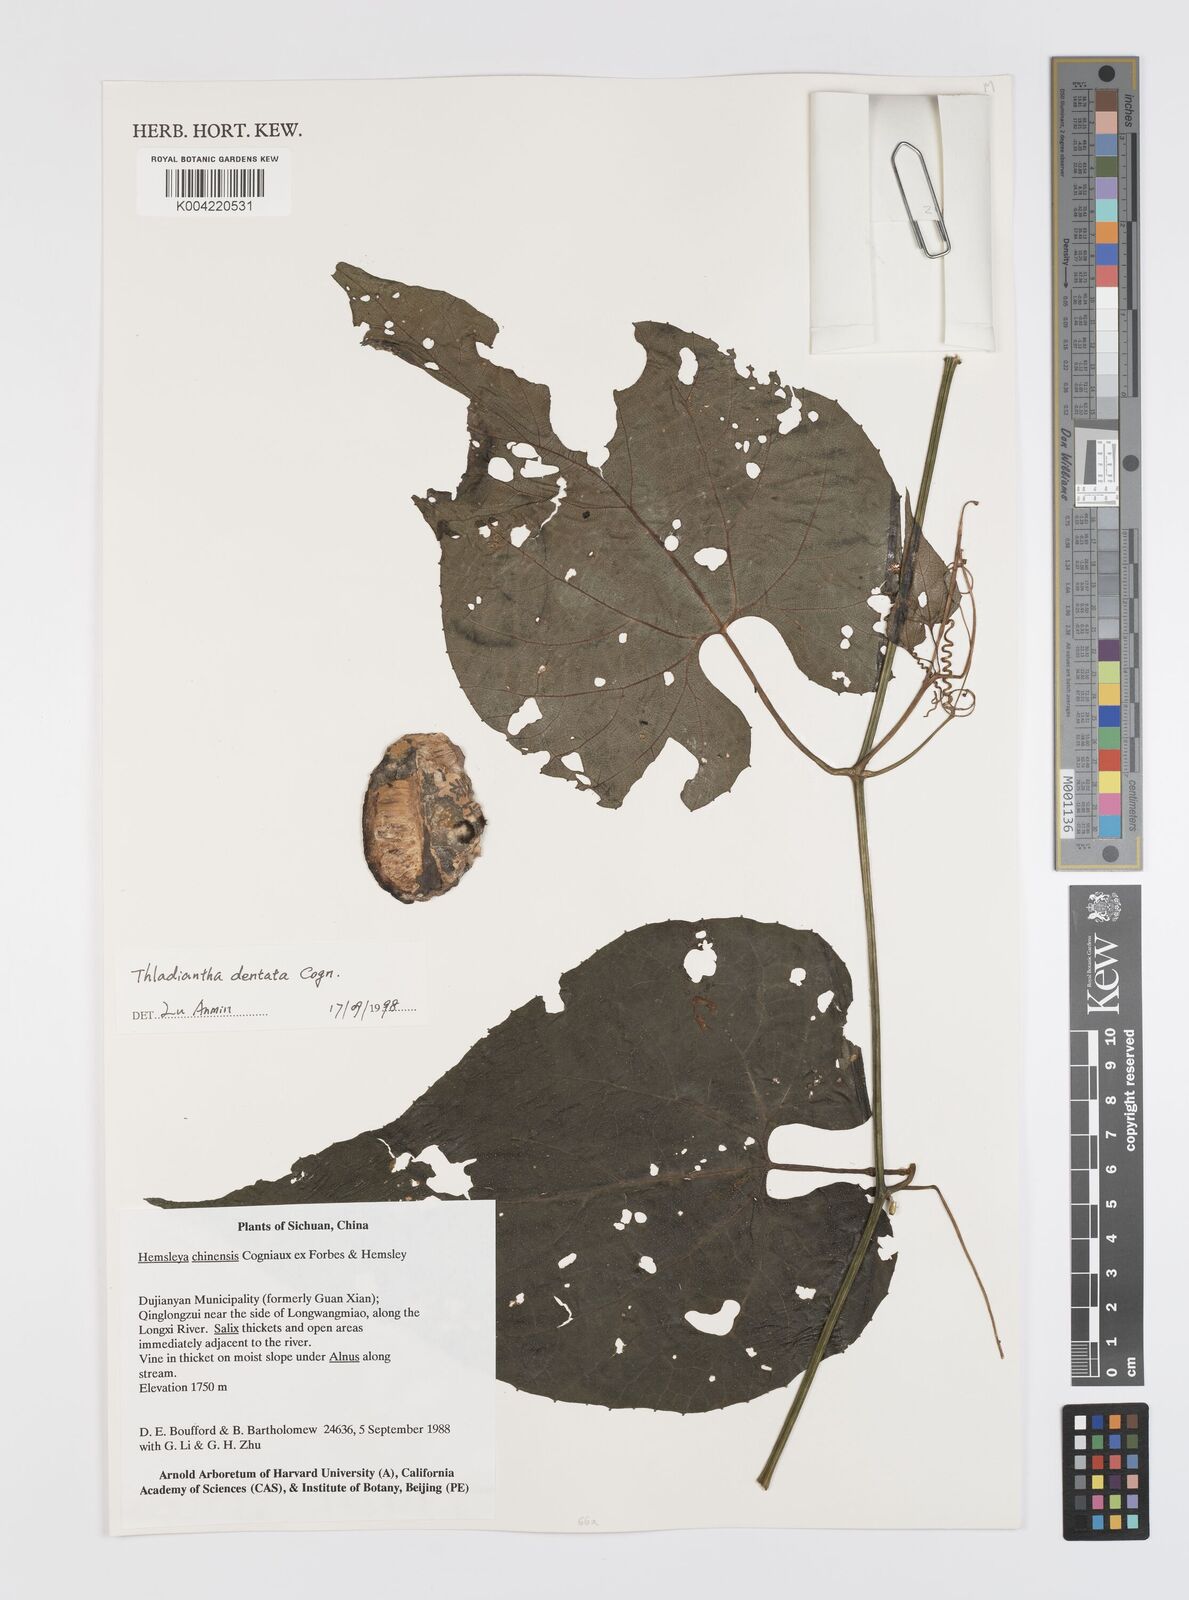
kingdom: Plantae
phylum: Tracheophyta
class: Magnoliopsida
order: Cucurbitales
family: Cucurbitaceae
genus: Thladiantha
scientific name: Thladiantha dentata
